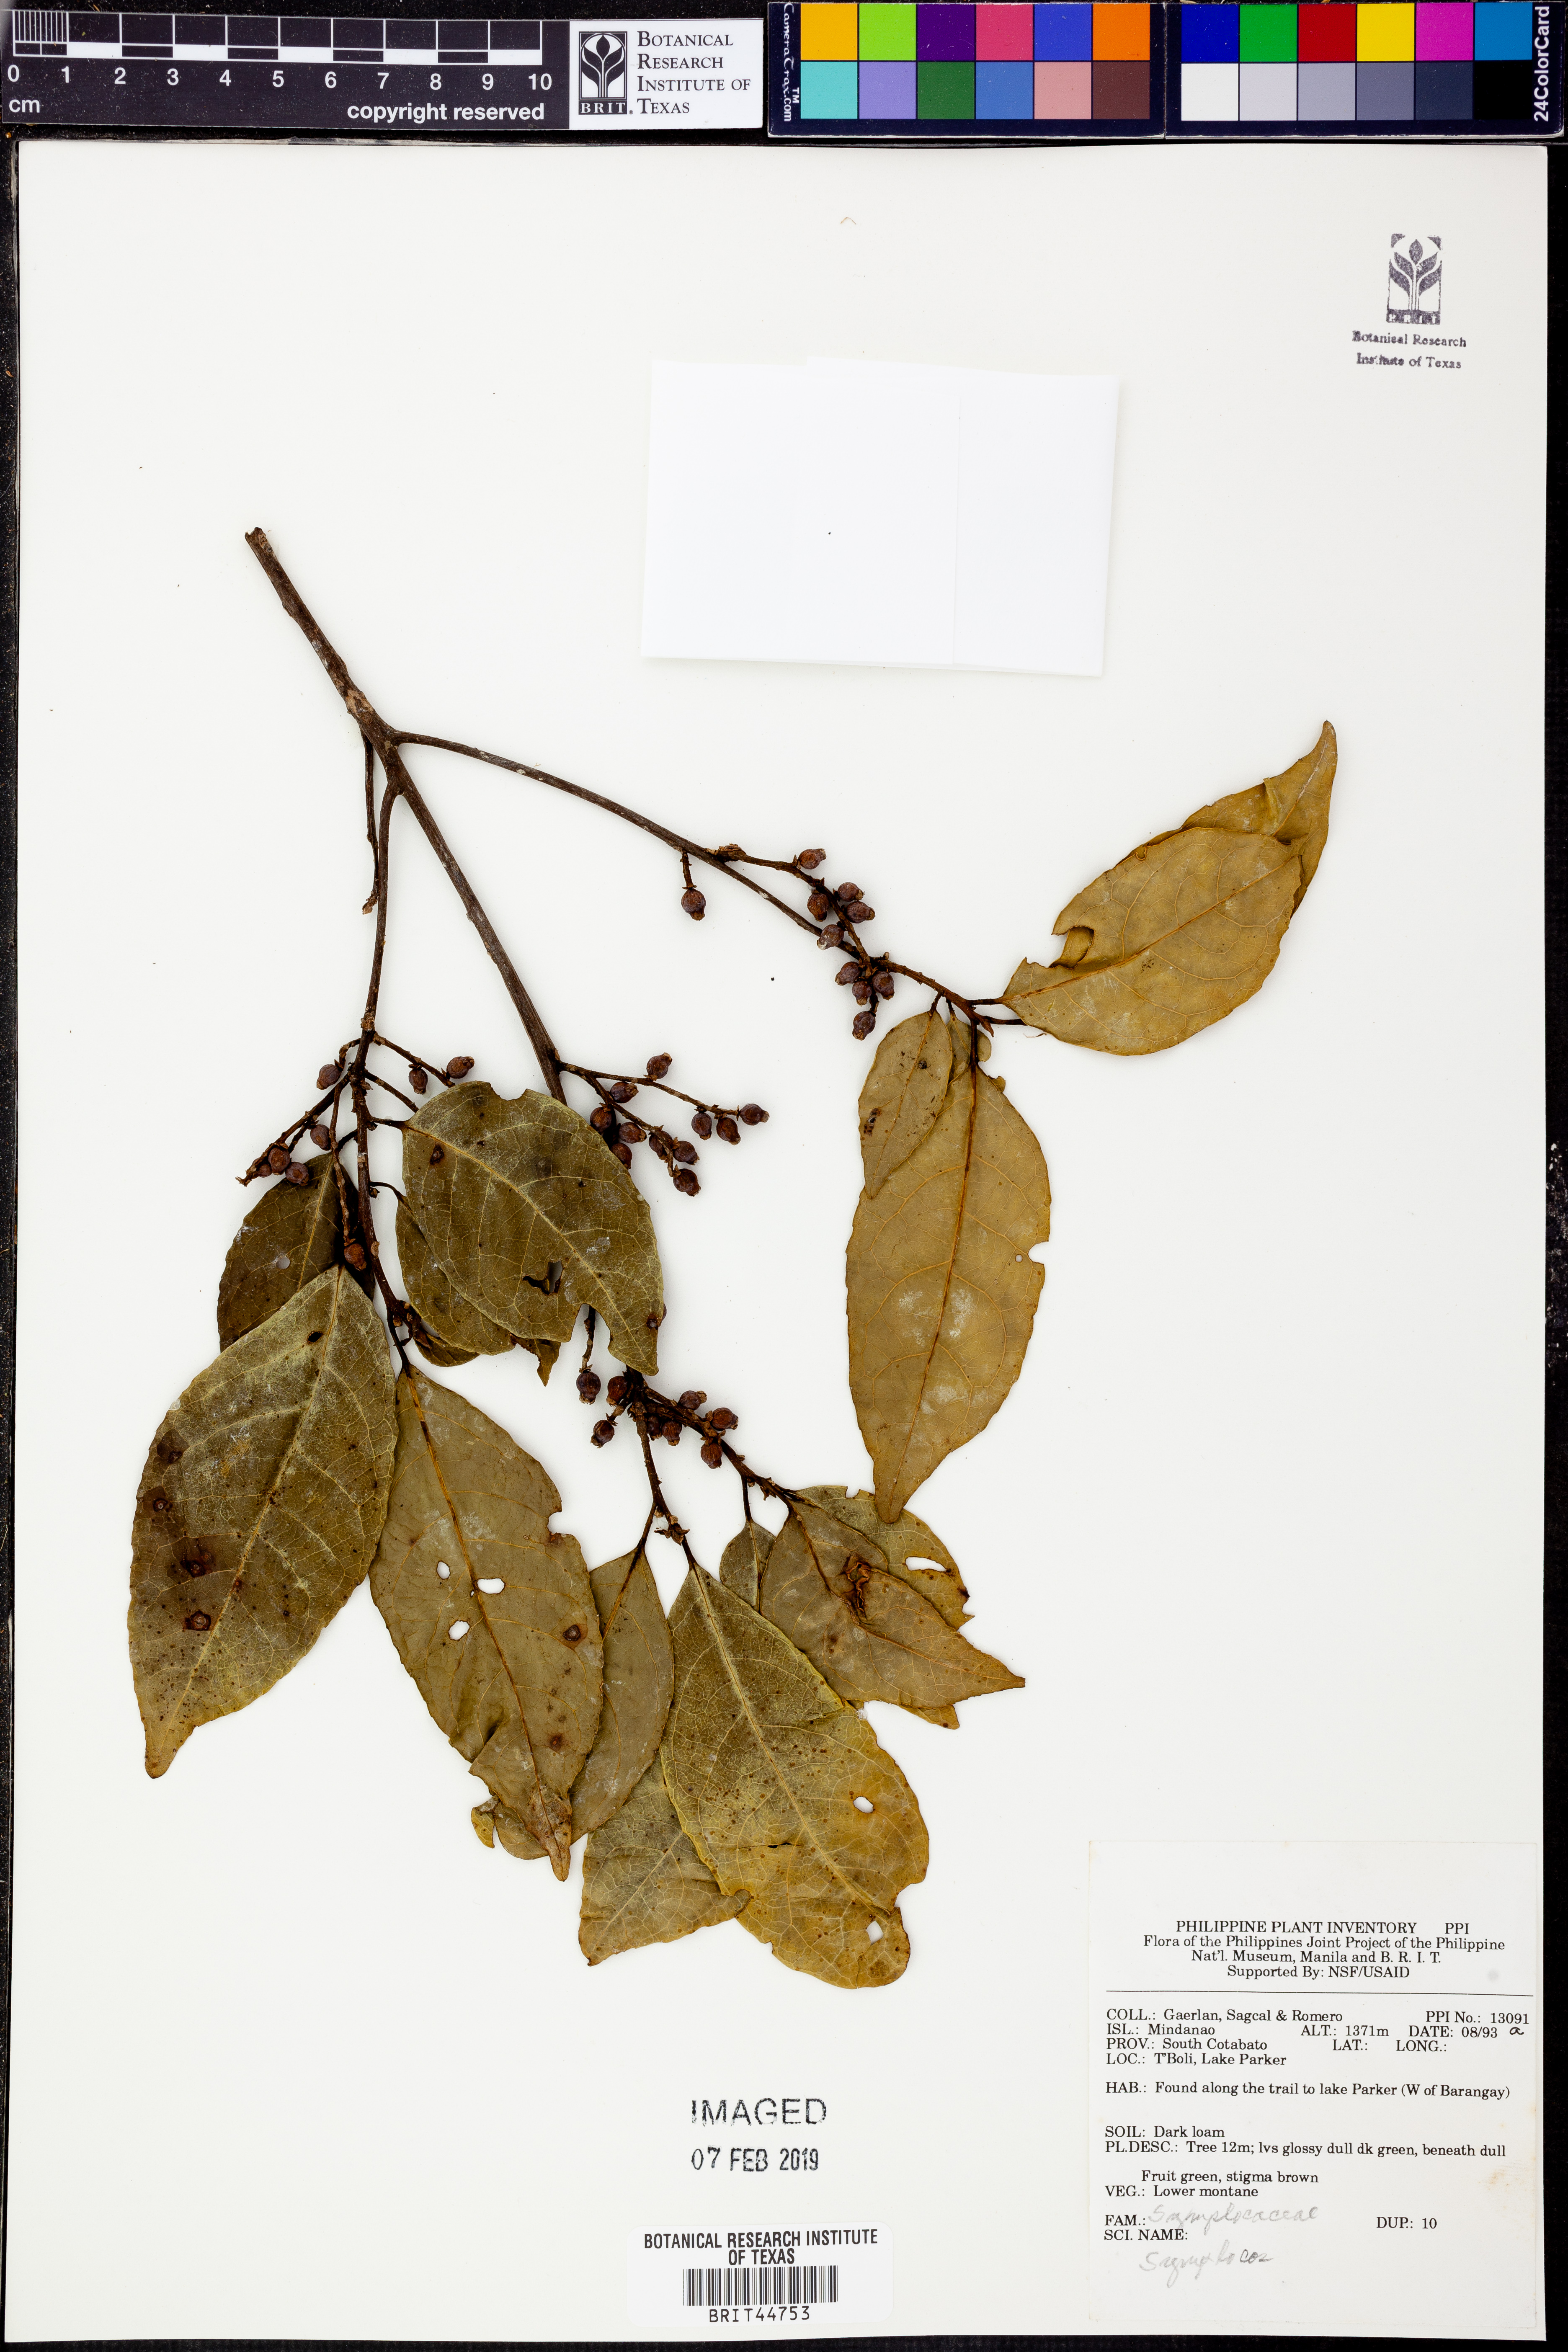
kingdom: Plantae
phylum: Tracheophyta
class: Magnoliopsida
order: Ericales
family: Symplocaceae
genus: Symplocos
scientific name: Symplocos cochinchinensis
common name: Buff hazelwood
